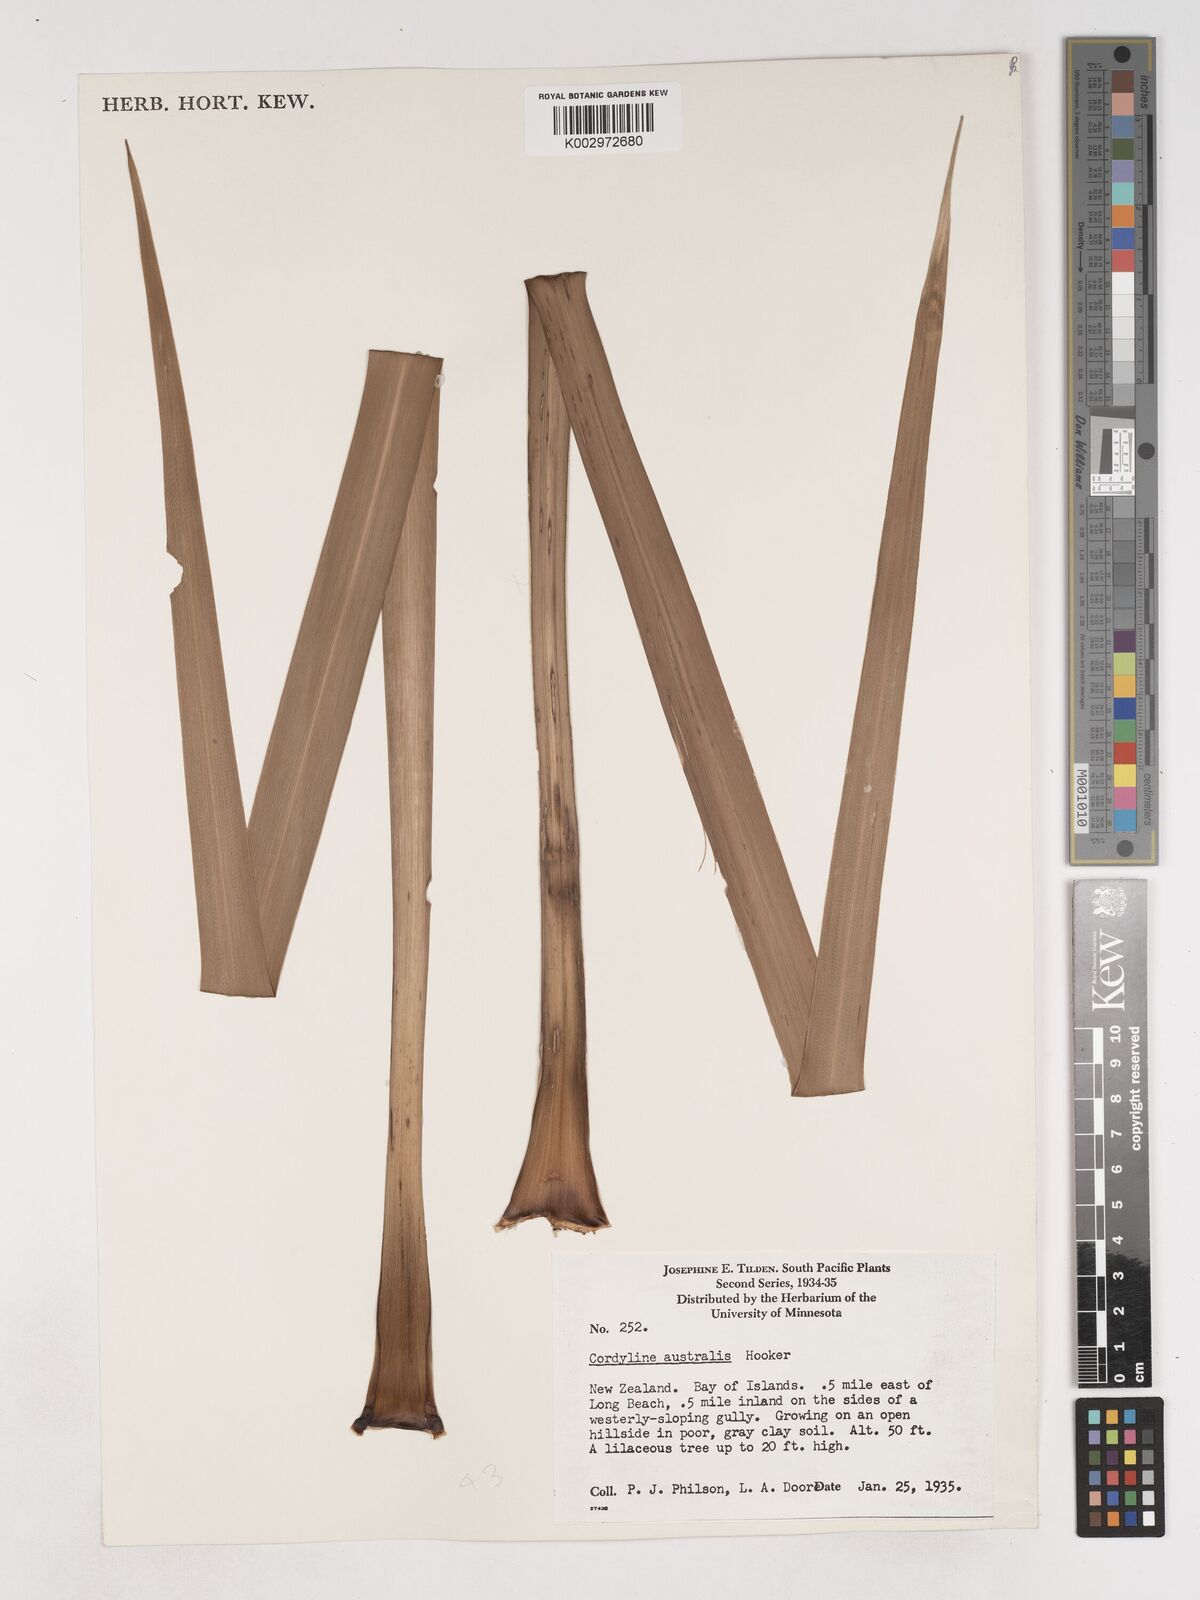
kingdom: Plantae
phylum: Tracheophyta
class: Liliopsida
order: Asparagales
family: Asparagaceae
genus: Cordyline
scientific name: Cordyline australis
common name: Cabbage-palm
